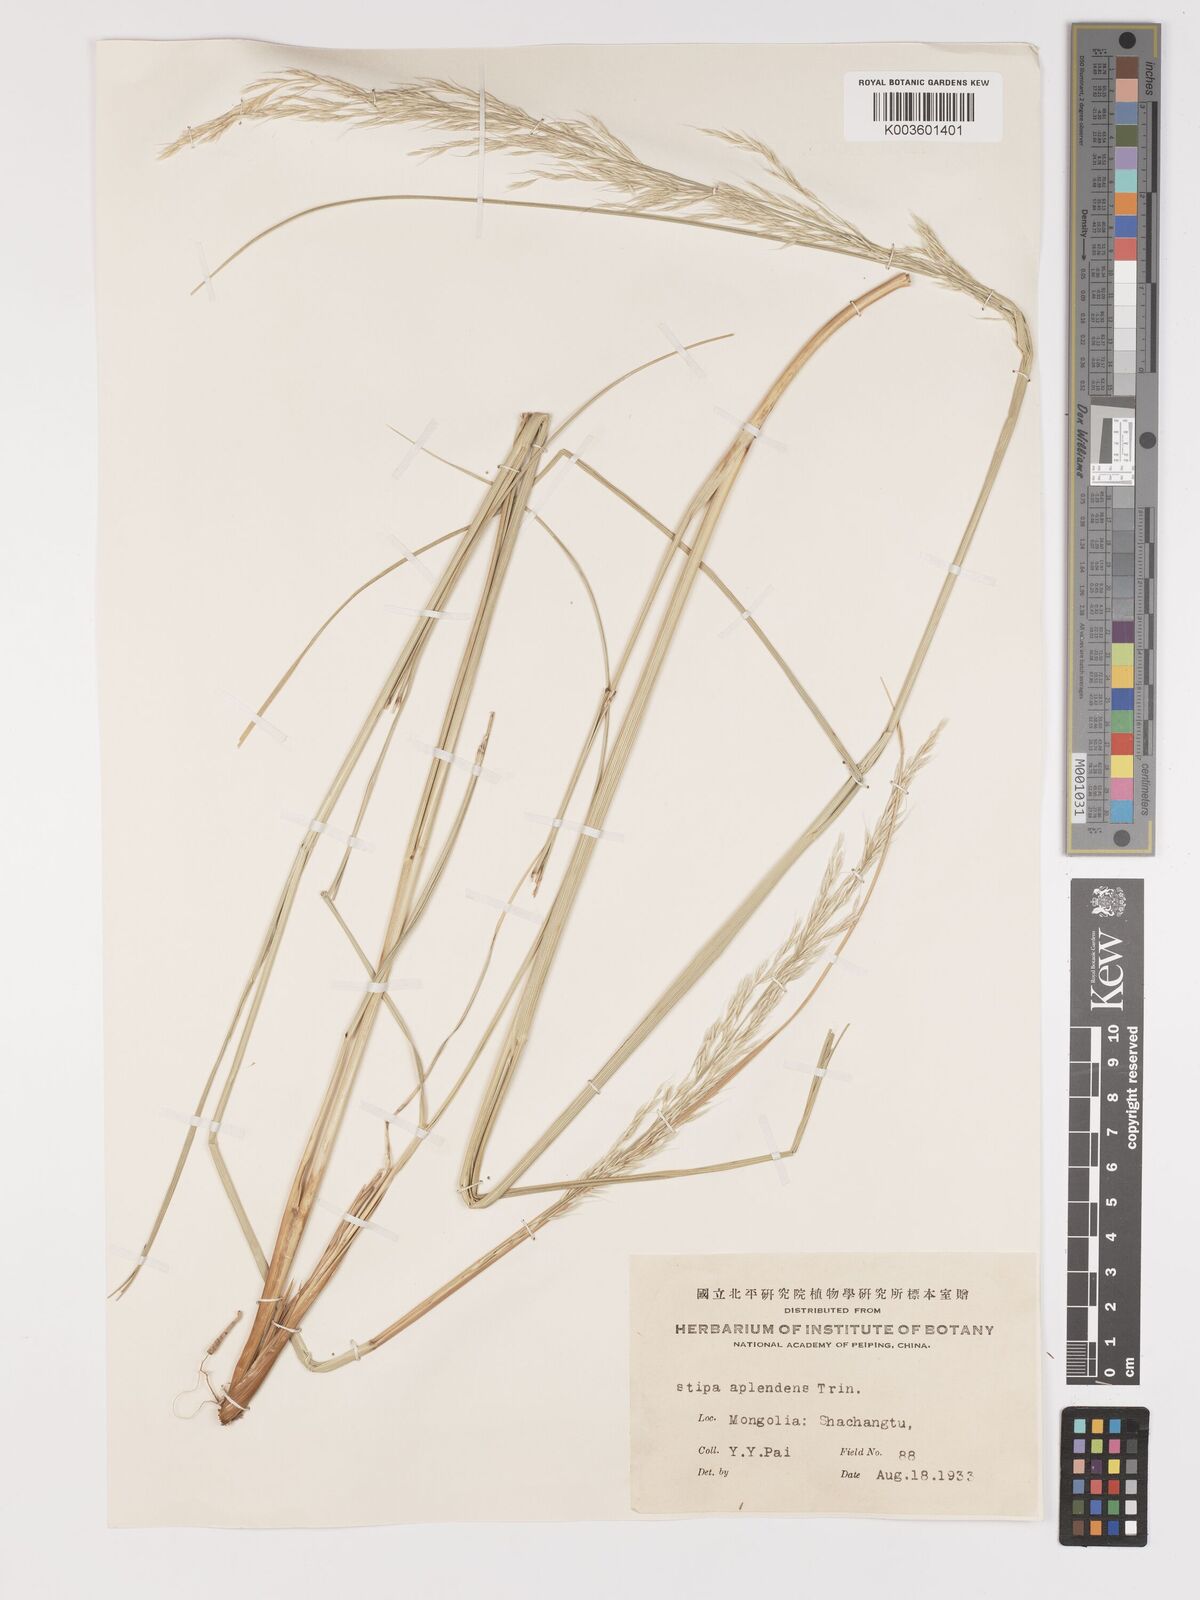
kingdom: Plantae
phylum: Tracheophyta
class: Liliopsida
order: Poales
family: Poaceae
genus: Neotrinia
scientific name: Neotrinia splendens
